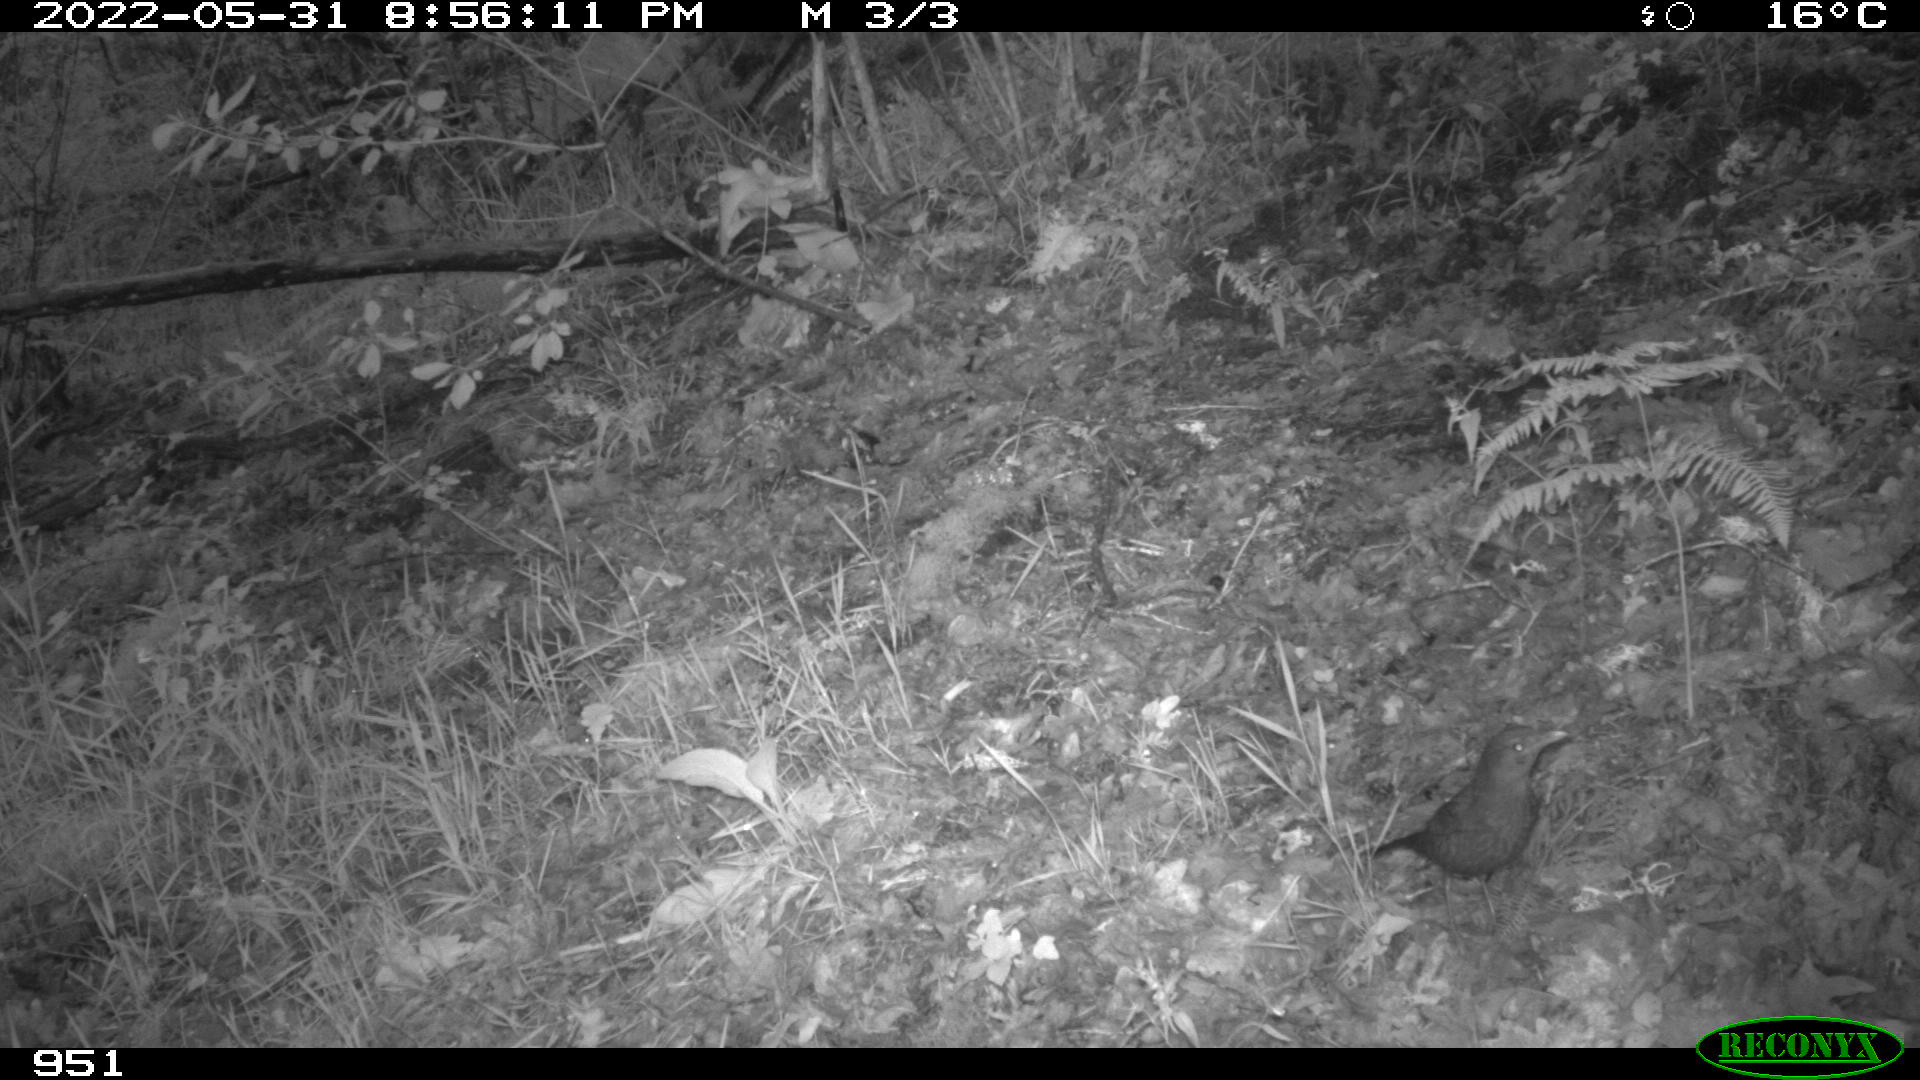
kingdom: Animalia
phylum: Chordata
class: Aves
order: Passeriformes
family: Turdidae
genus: Turdus
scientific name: Turdus merula
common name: Common blackbird
